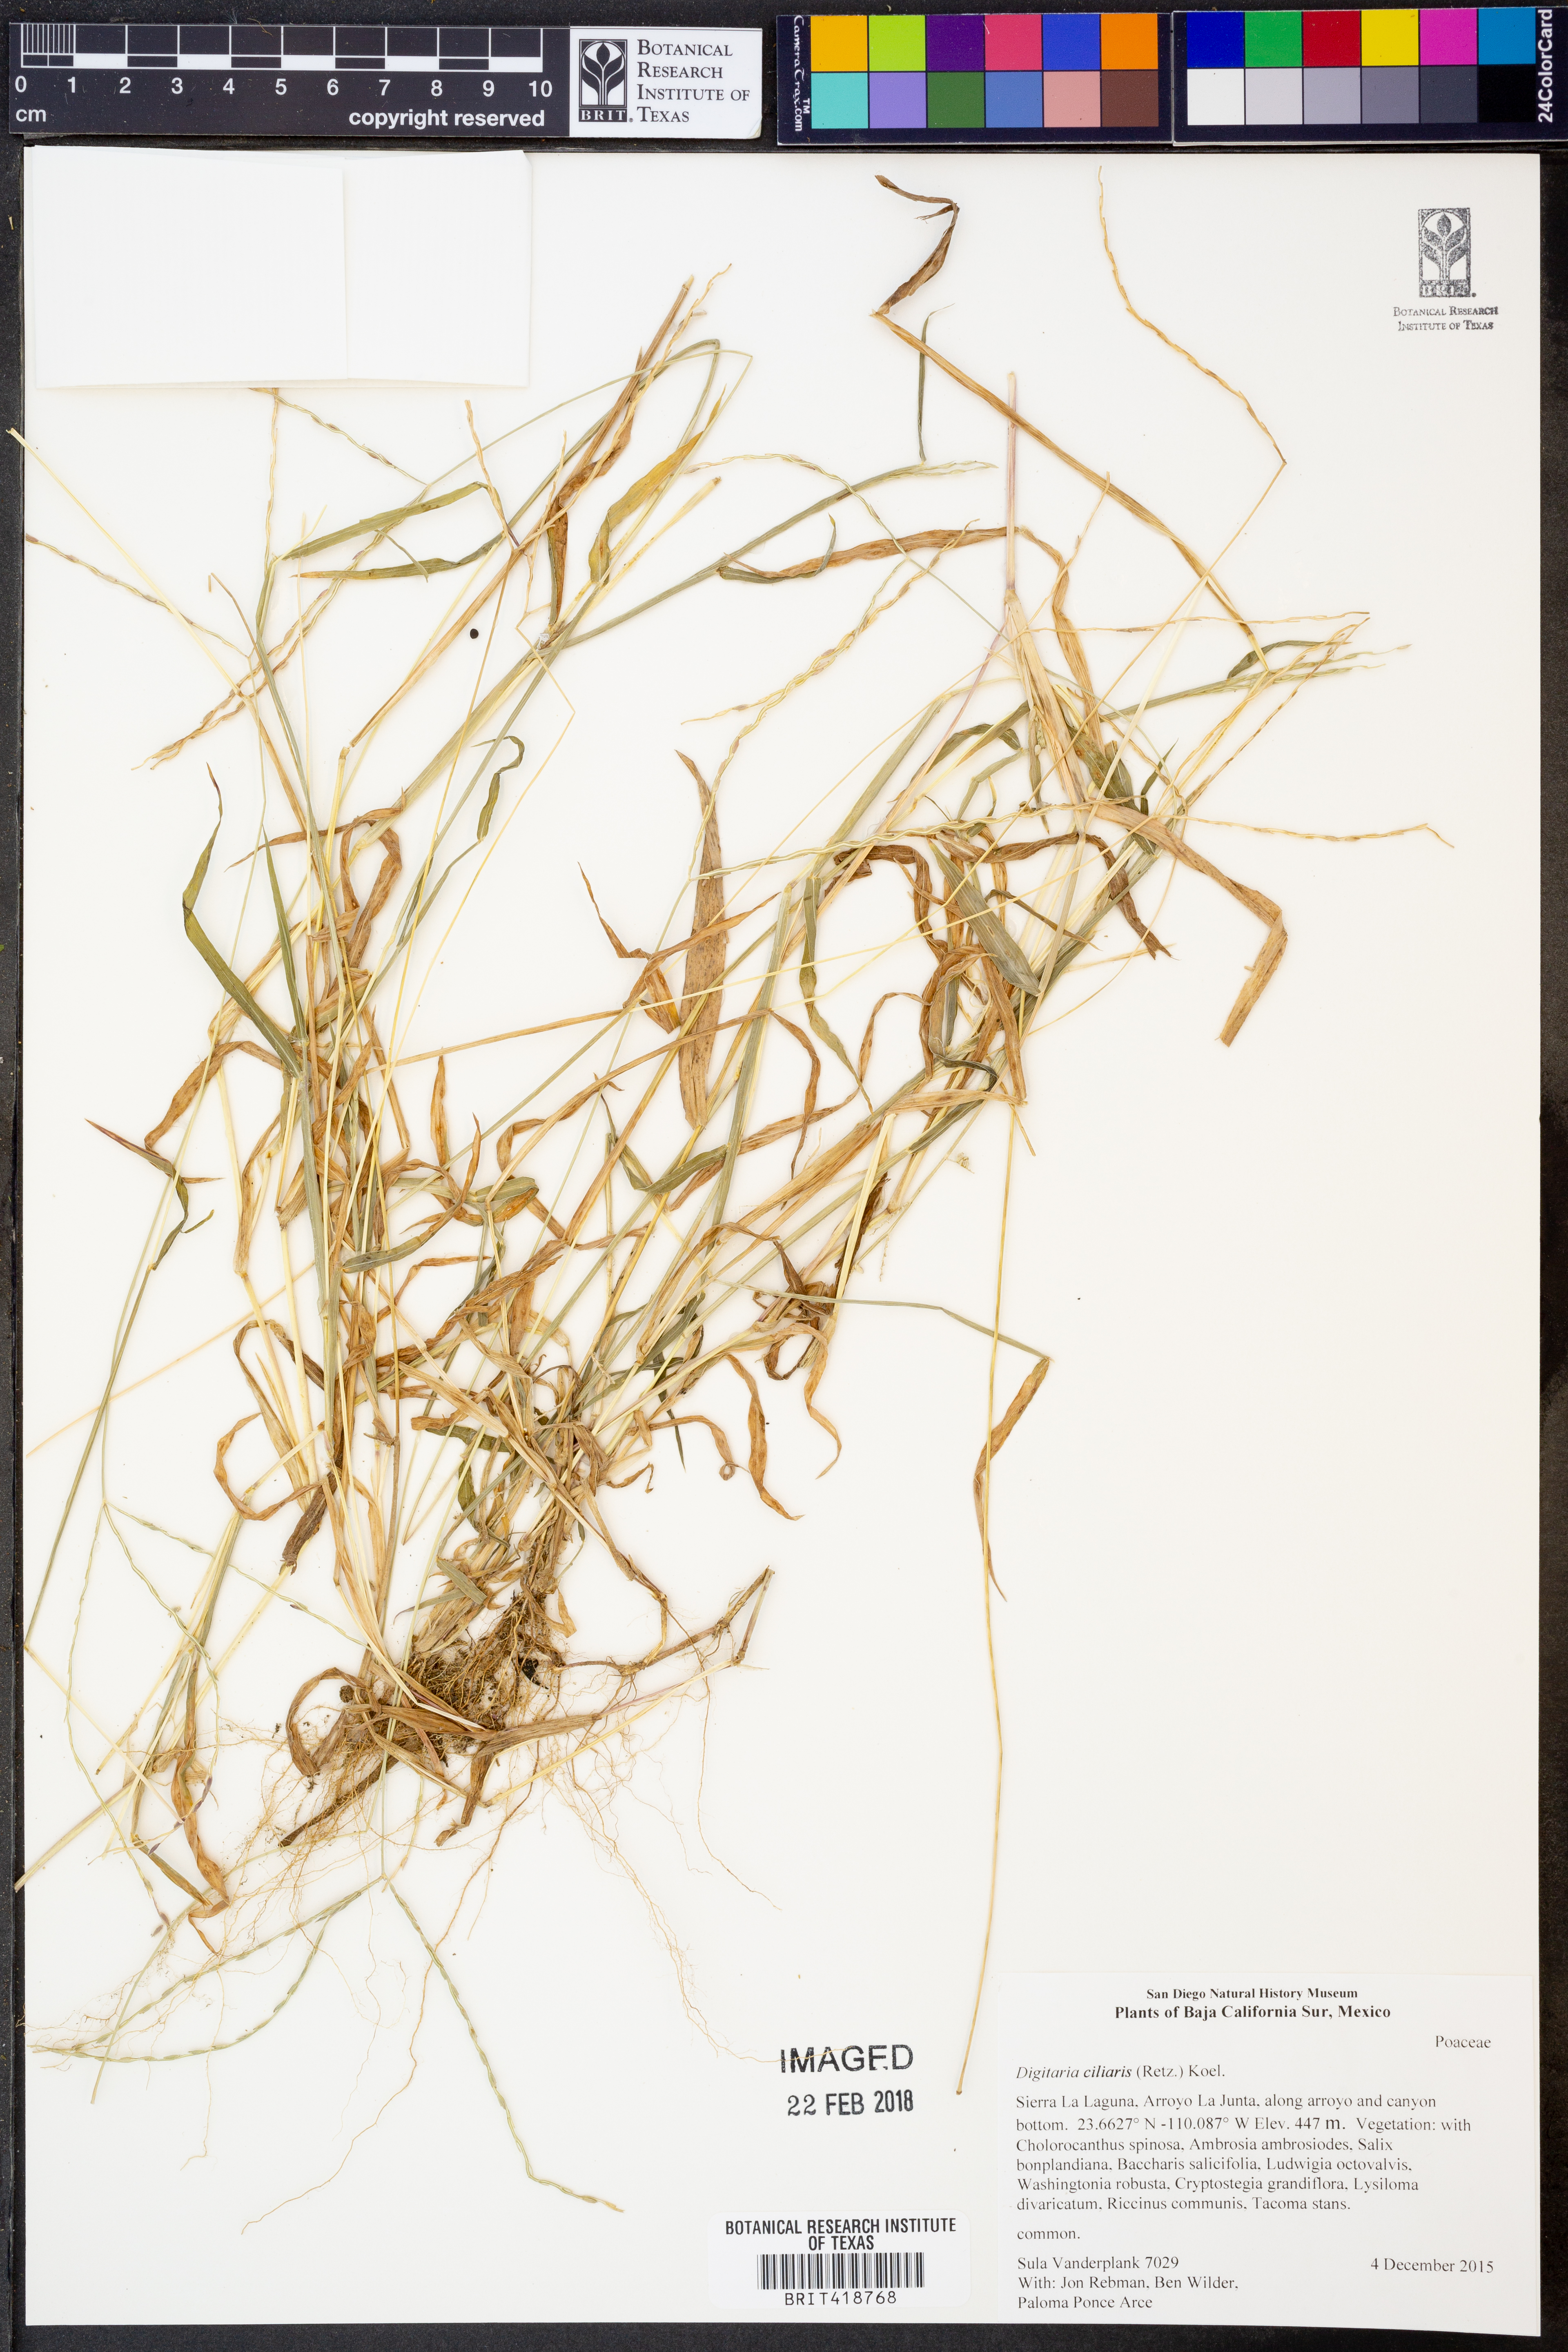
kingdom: Plantae
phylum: Tracheophyta
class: Liliopsida
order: Poales
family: Poaceae
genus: Digitaria
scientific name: Digitaria ciliaris
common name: Tropical finger-grass
